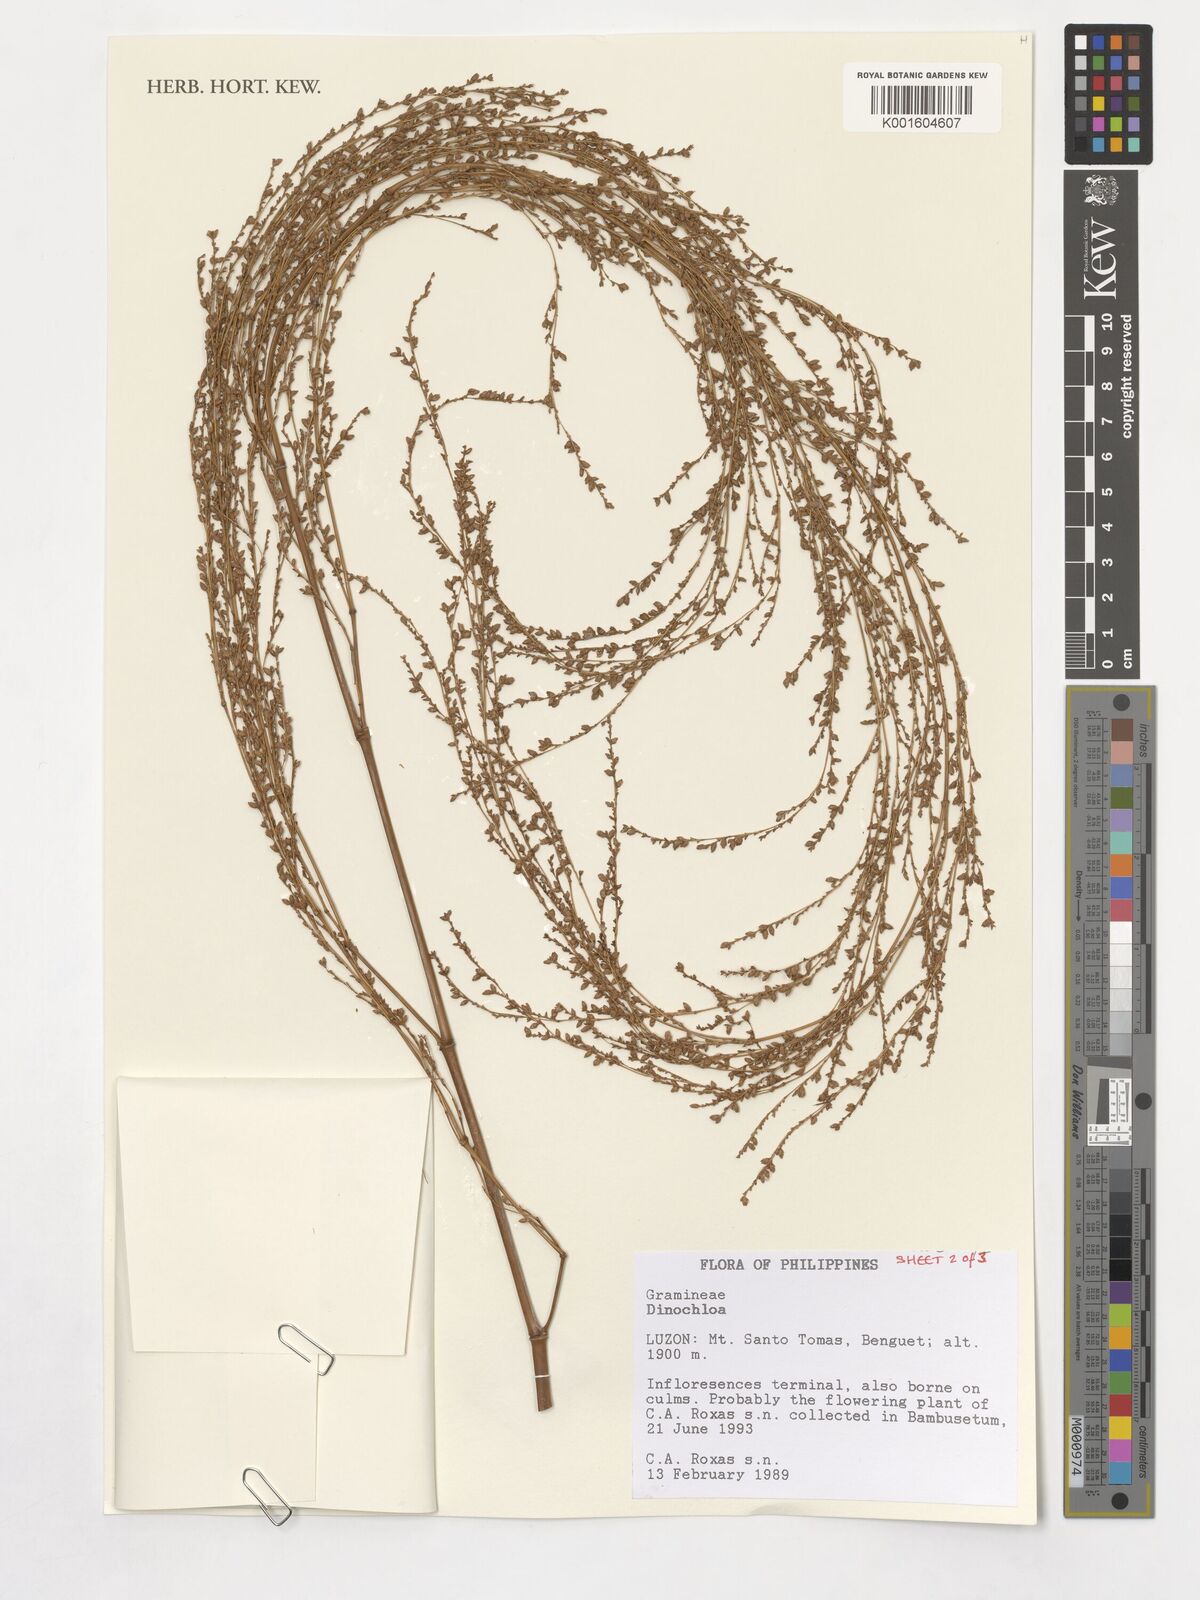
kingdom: Plantae
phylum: Tracheophyta
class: Liliopsida
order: Poales
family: Poaceae
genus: Dinochloa
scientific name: Dinochloa
